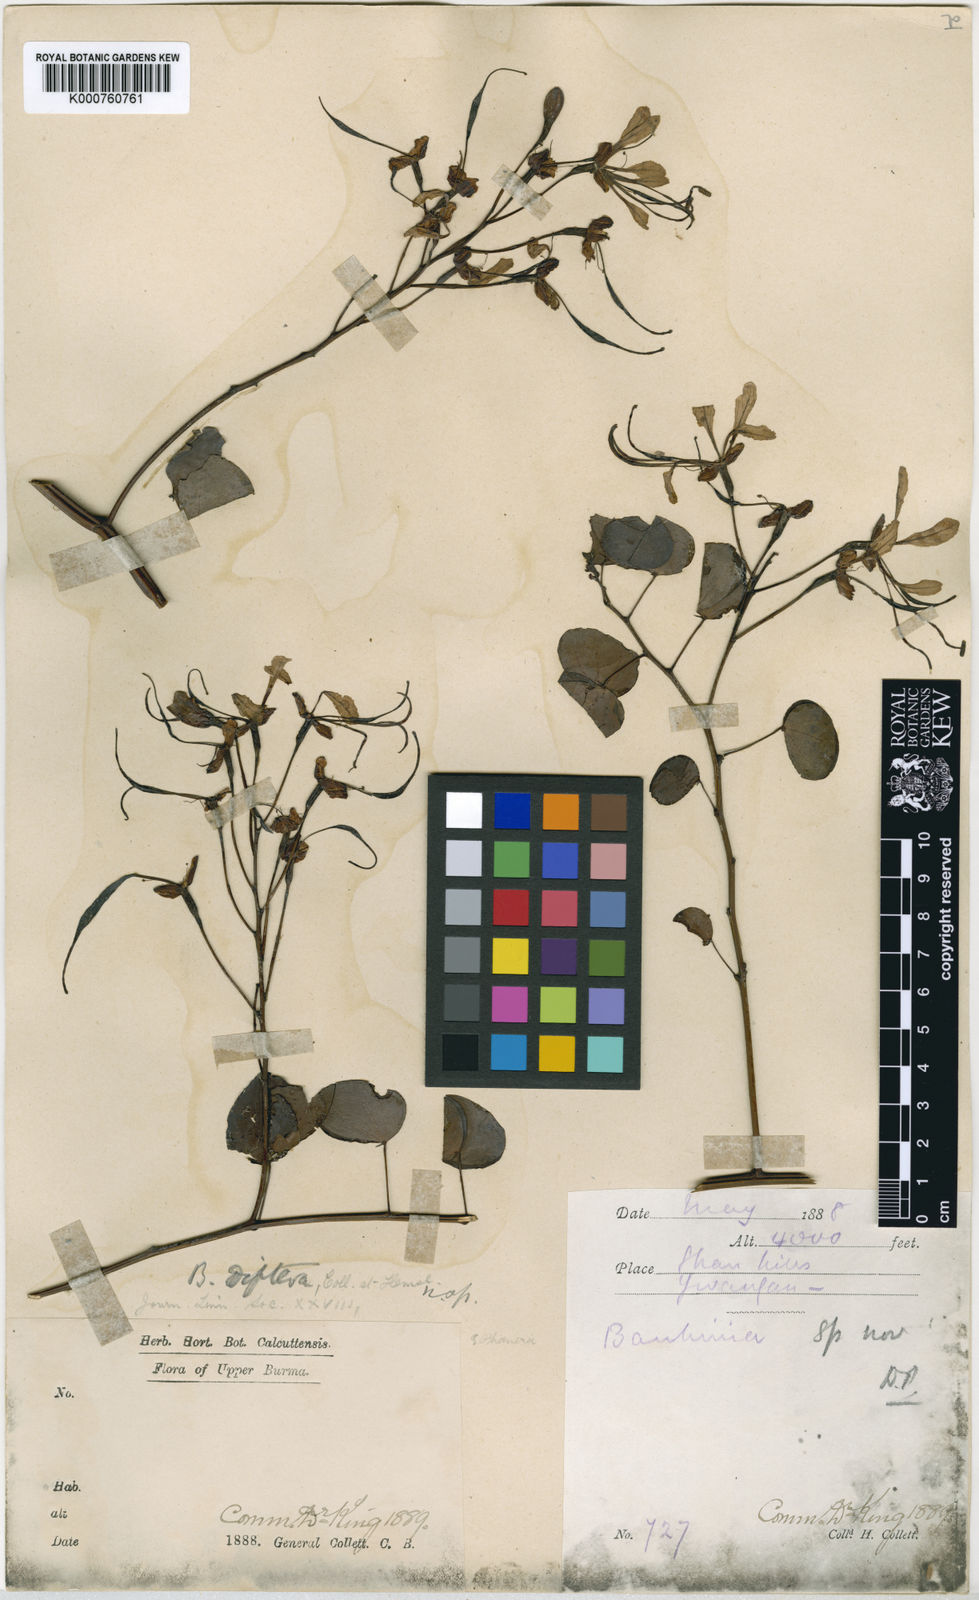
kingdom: Plantae
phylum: Tracheophyta
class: Magnoliopsida
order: Fabales
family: Fabaceae
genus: Phanera
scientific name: Phanera yunnanensis
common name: Phanera
